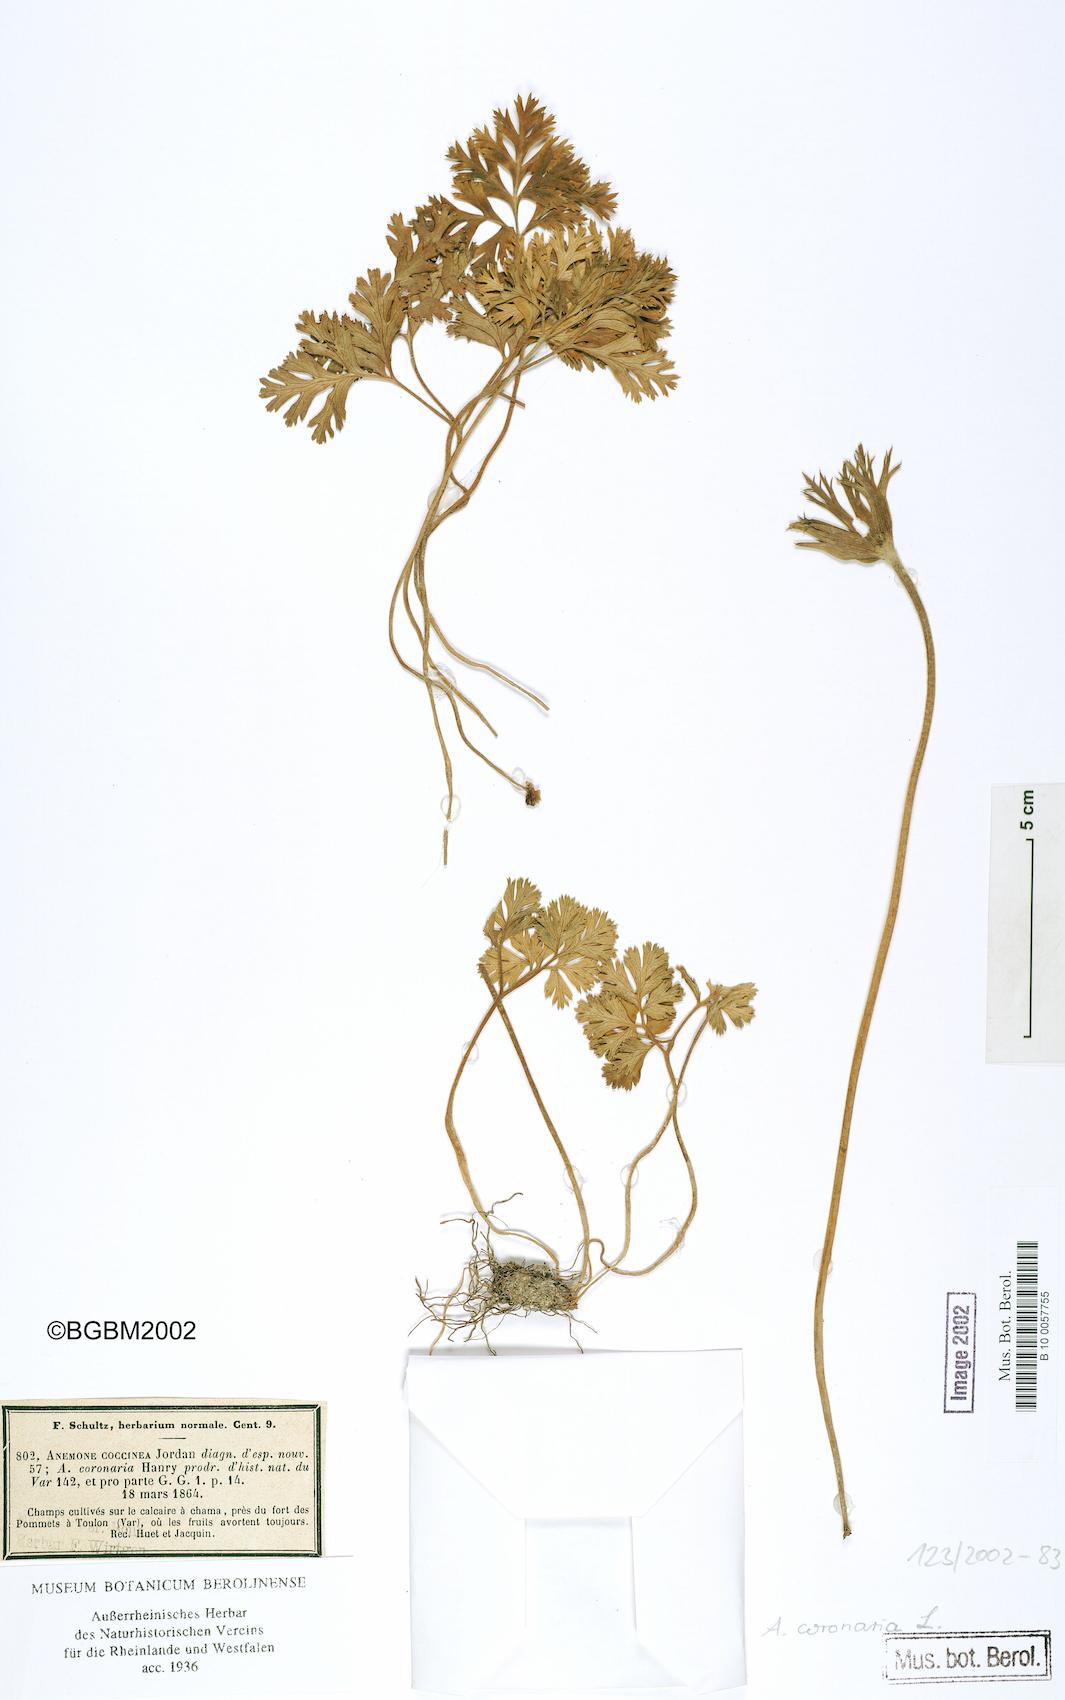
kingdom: Plantae
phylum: Tracheophyta
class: Magnoliopsida
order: Ranunculales
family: Ranunculaceae
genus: Anemone
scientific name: Anemone coronaria
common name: Poppy anemone
